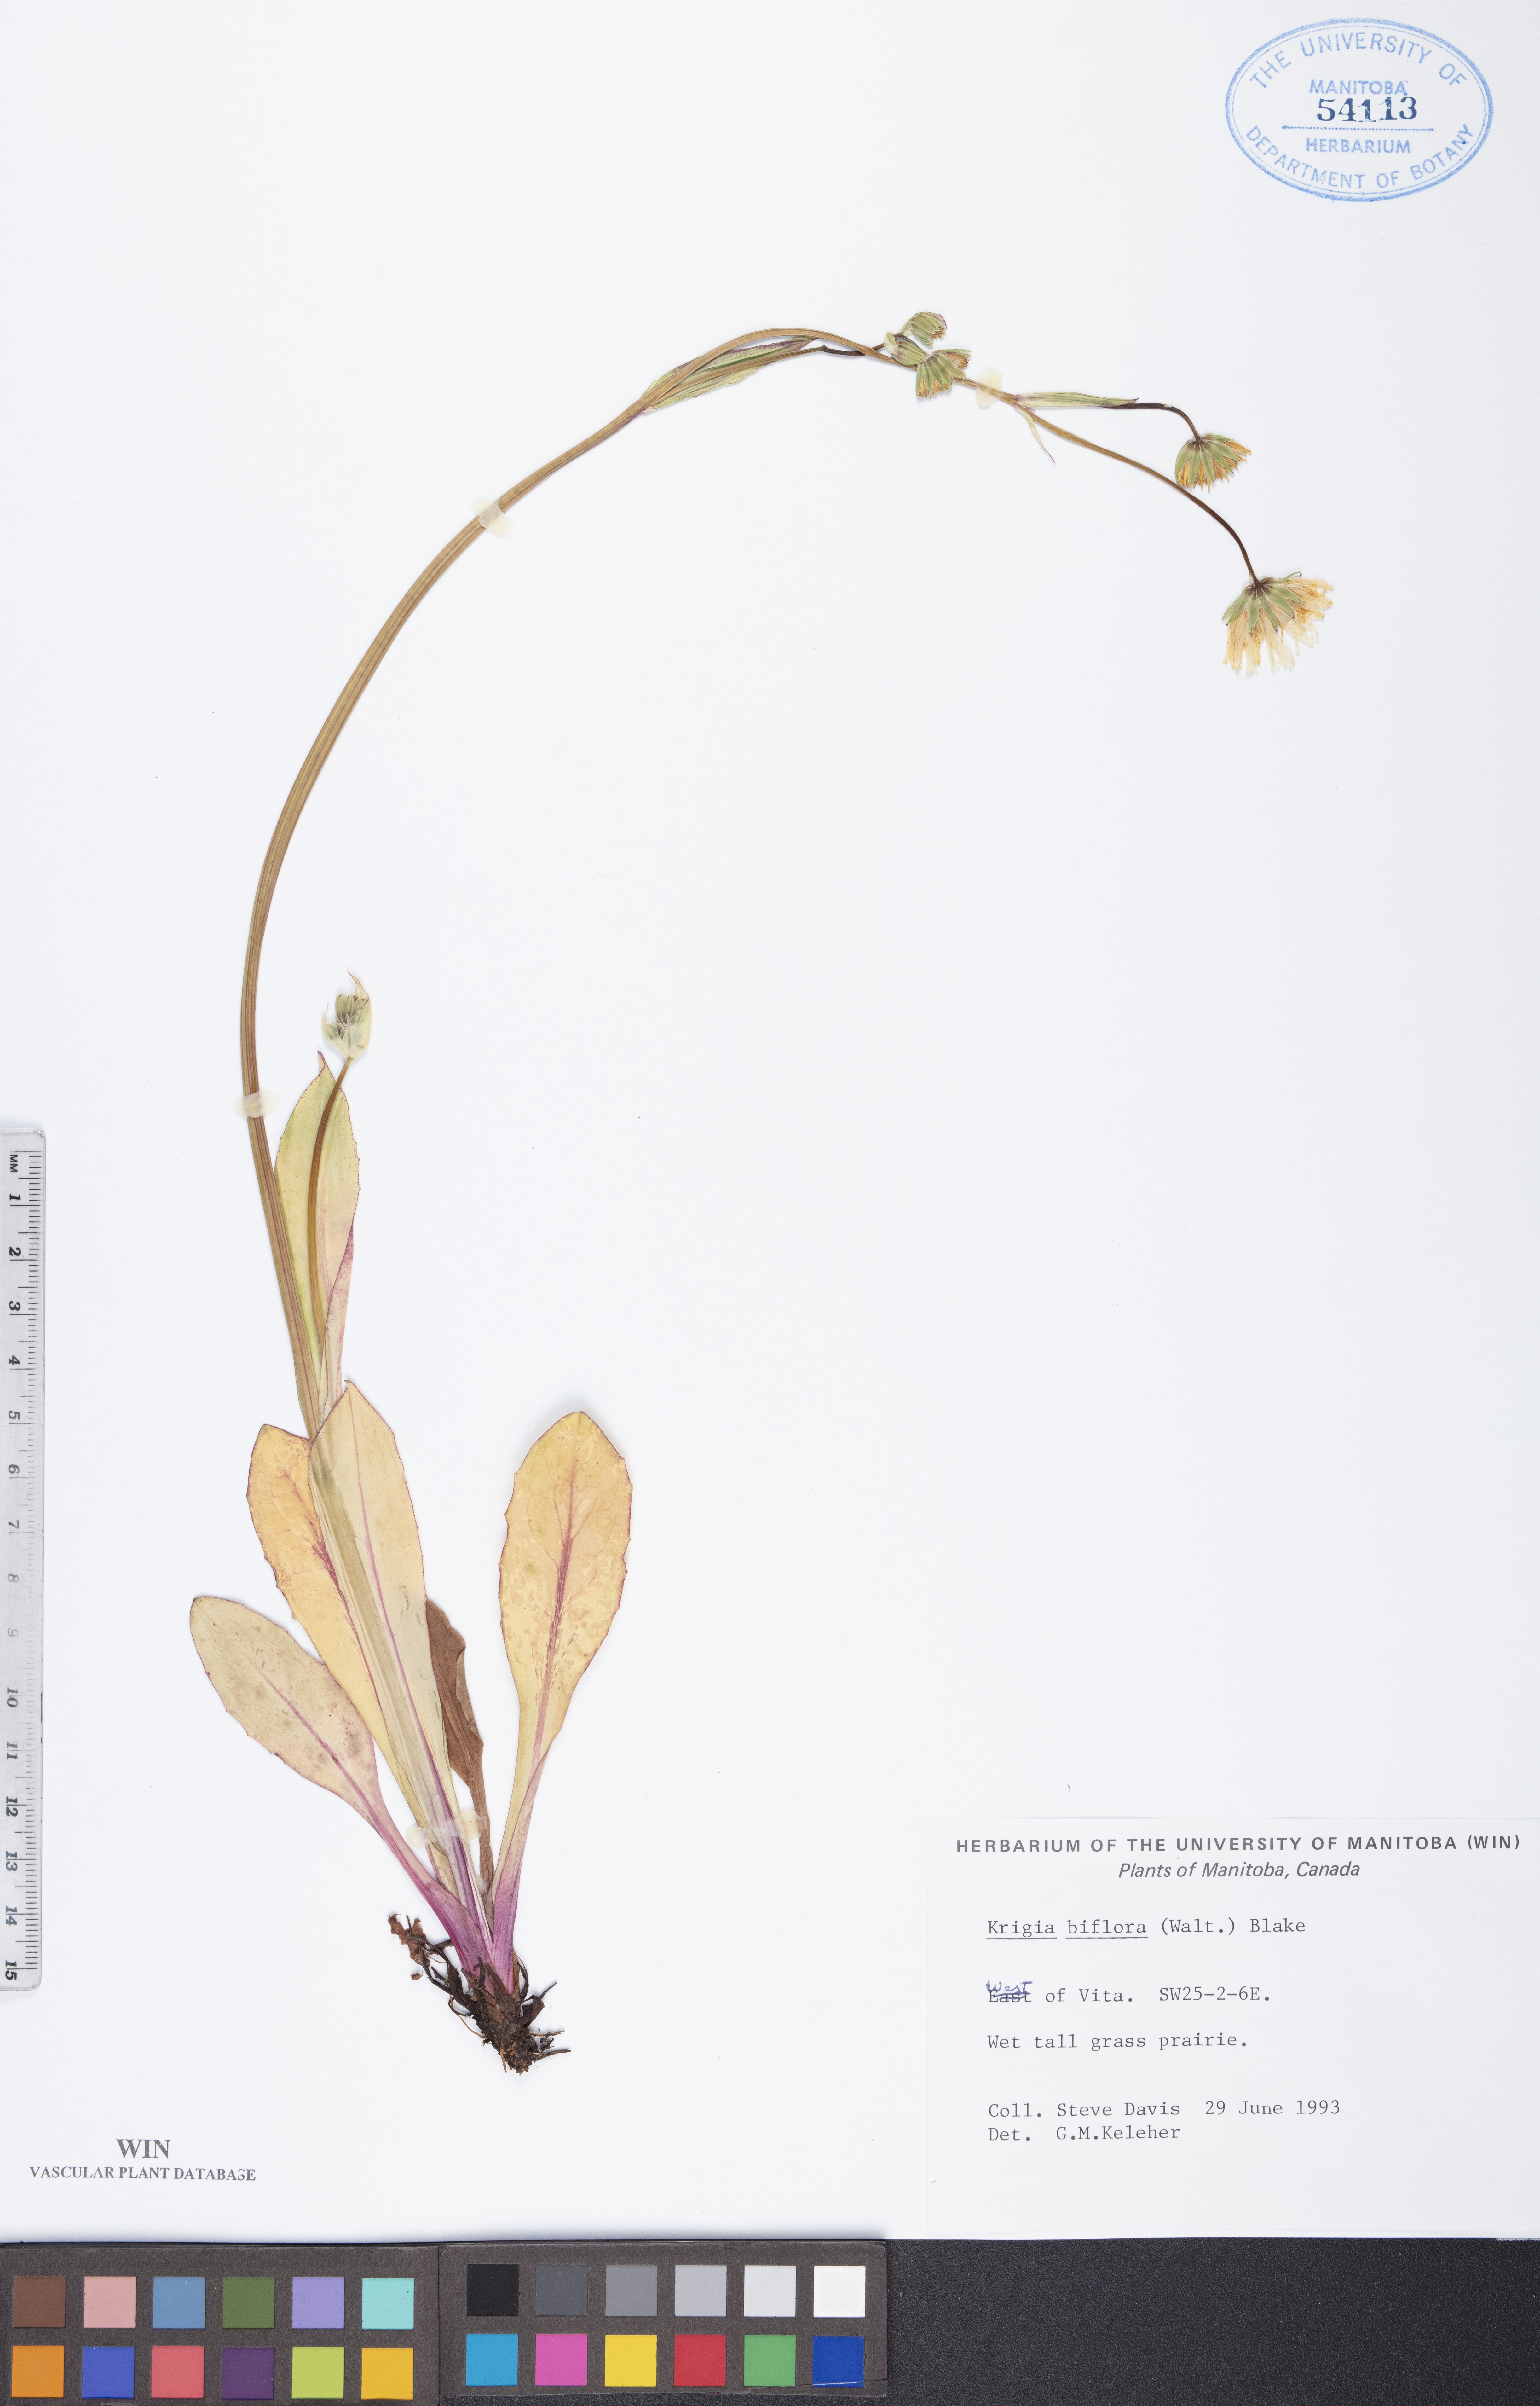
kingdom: Plantae
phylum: Tracheophyta
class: Magnoliopsida
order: Asterales
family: Asteraceae
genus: Krigia
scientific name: Krigia biflora
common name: Orange dwarf-dandelion
